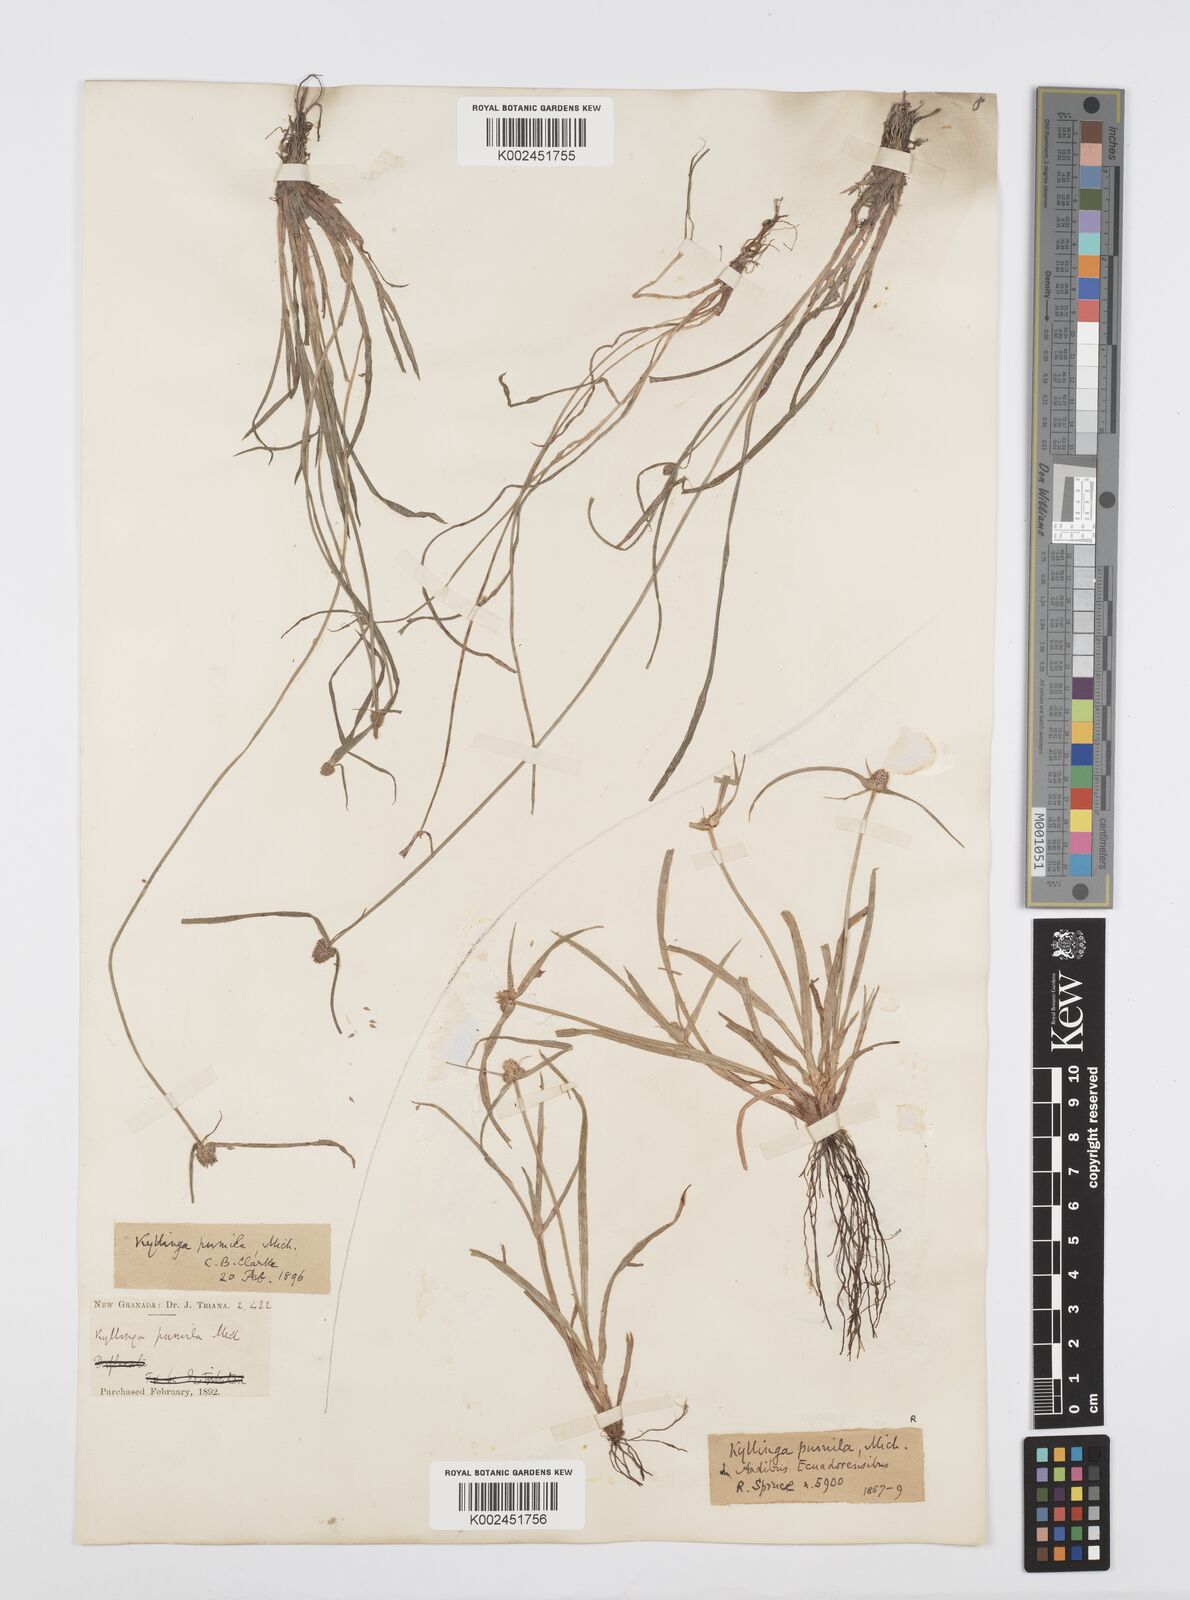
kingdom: Plantae
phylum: Tracheophyta
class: Liliopsida
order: Poales
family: Cyperaceae
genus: Cyperus
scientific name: Cyperus
